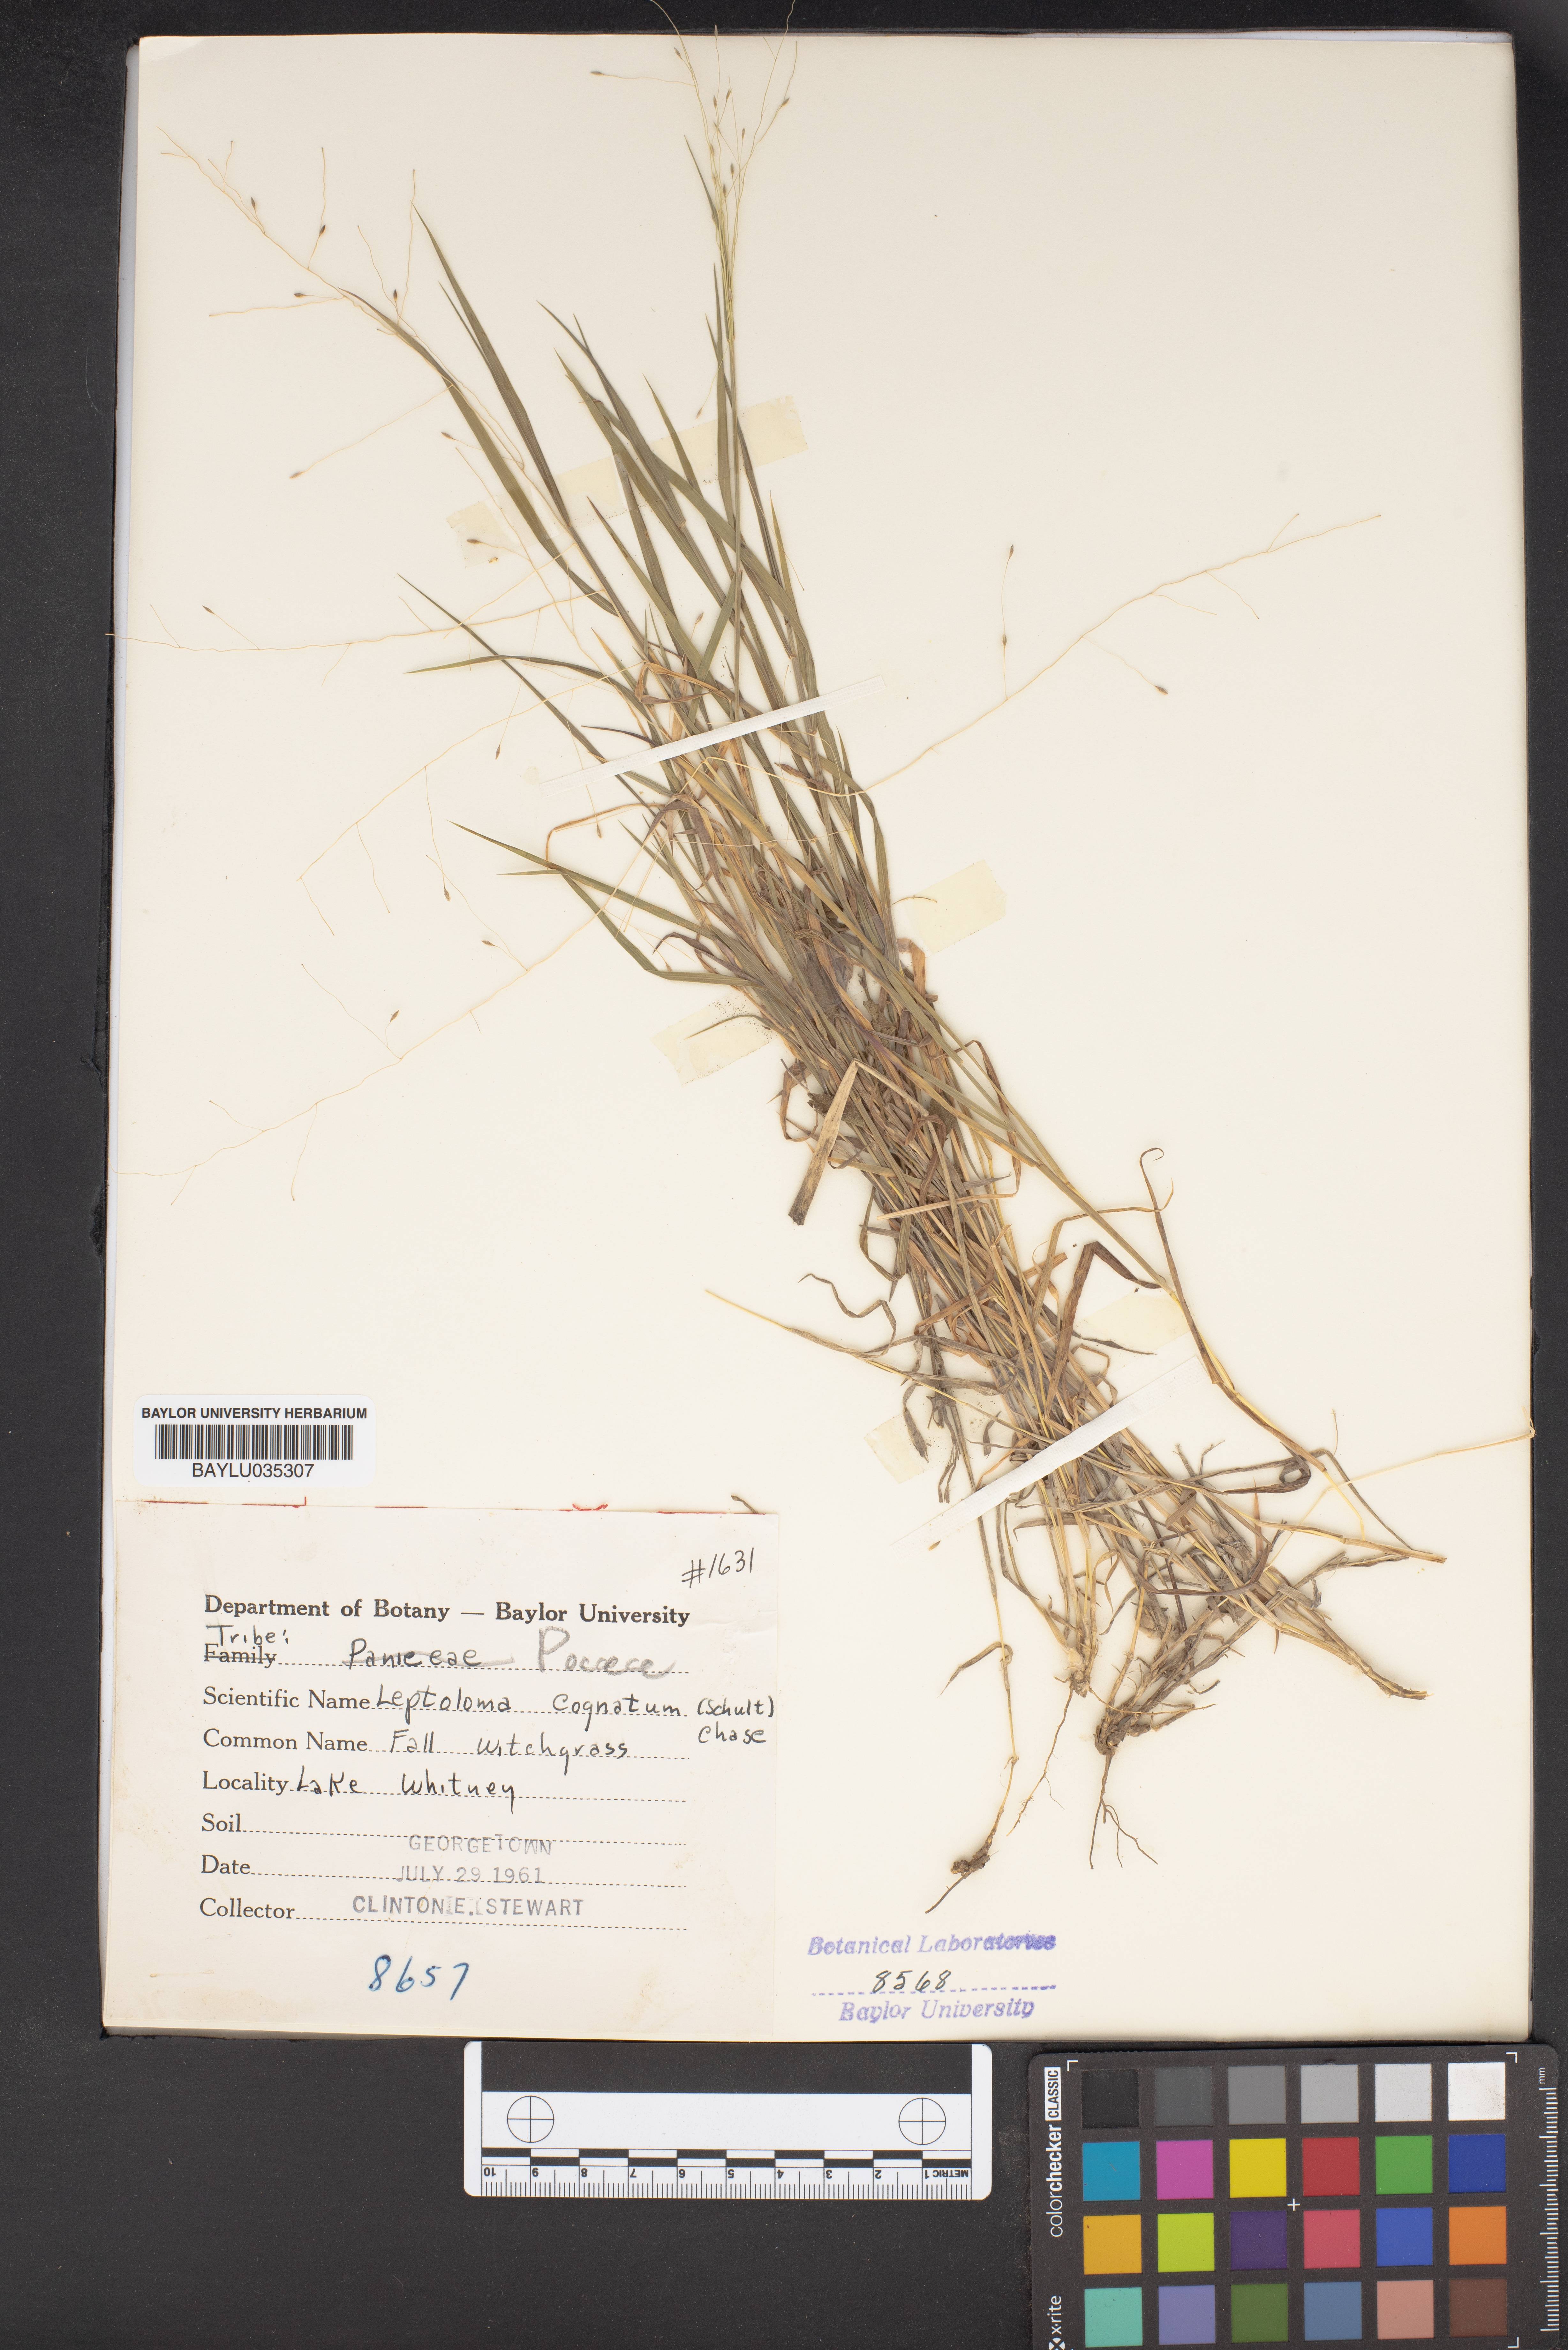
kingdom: Plantae
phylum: Tracheophyta
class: Liliopsida
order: Poales
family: Poaceae
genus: Digitaria
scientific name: Digitaria cognata
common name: Fall witchgrass
